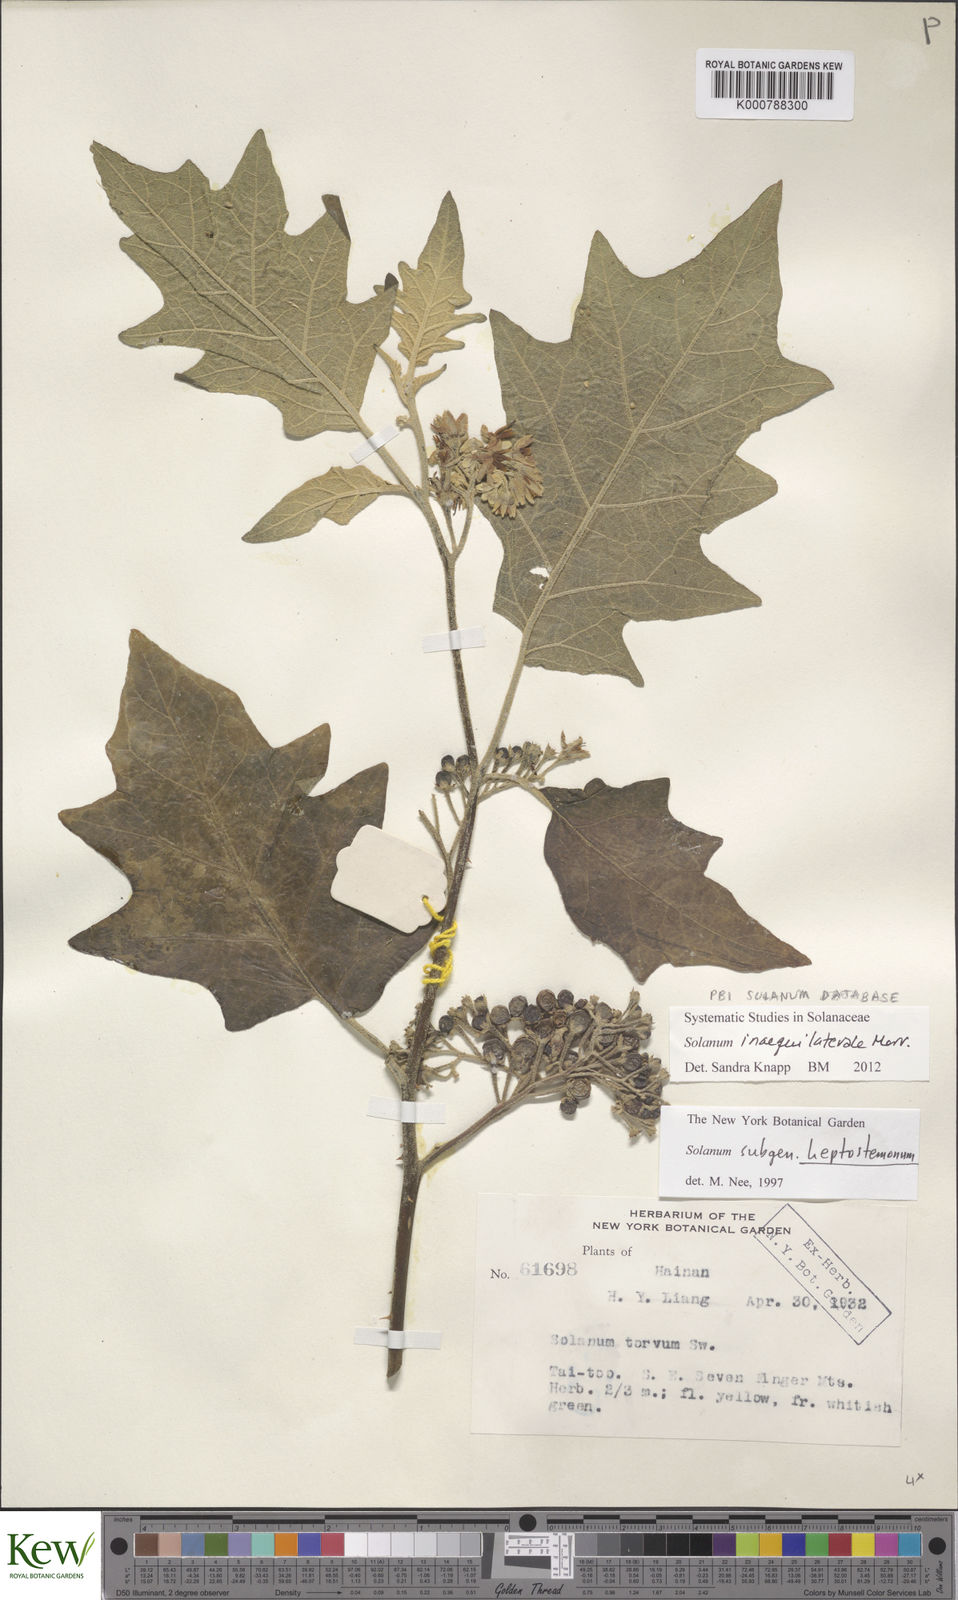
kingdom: Plantae
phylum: Tracheophyta
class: Magnoliopsida
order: Solanales
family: Solanaceae
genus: Solanum
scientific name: Solanum pseudosaponaceum
